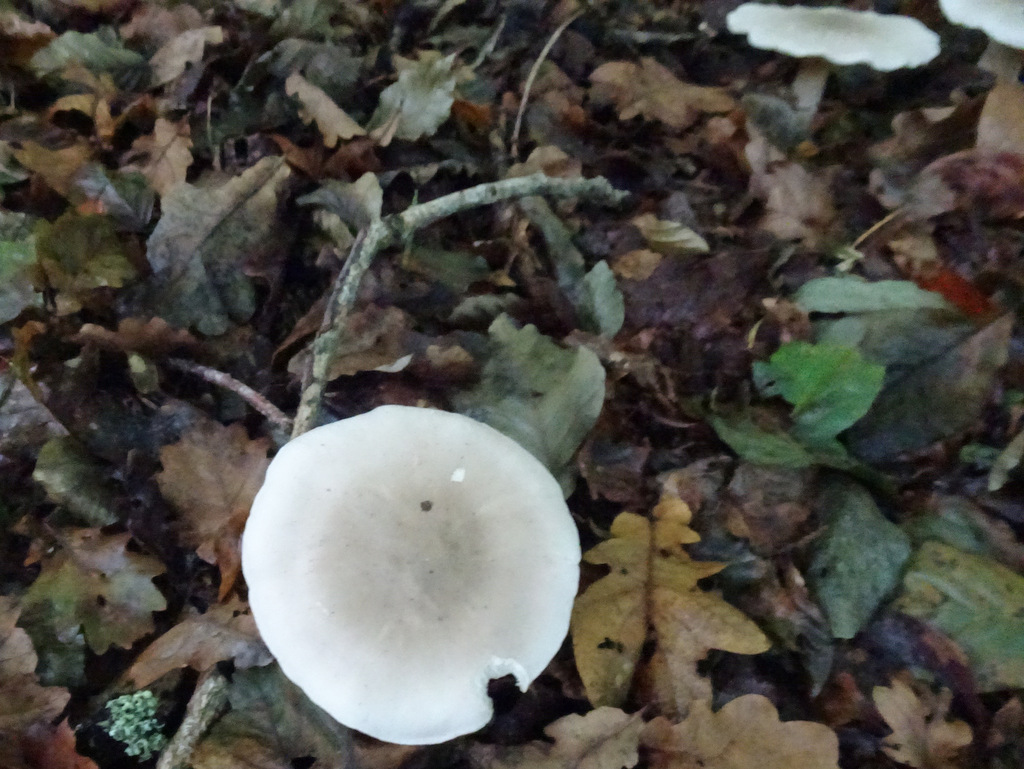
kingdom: Fungi
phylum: Basidiomycota
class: Agaricomycetes
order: Agaricales
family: Tricholomataceae
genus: Clitocybe
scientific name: Clitocybe nebularis
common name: tåge-tragthat
